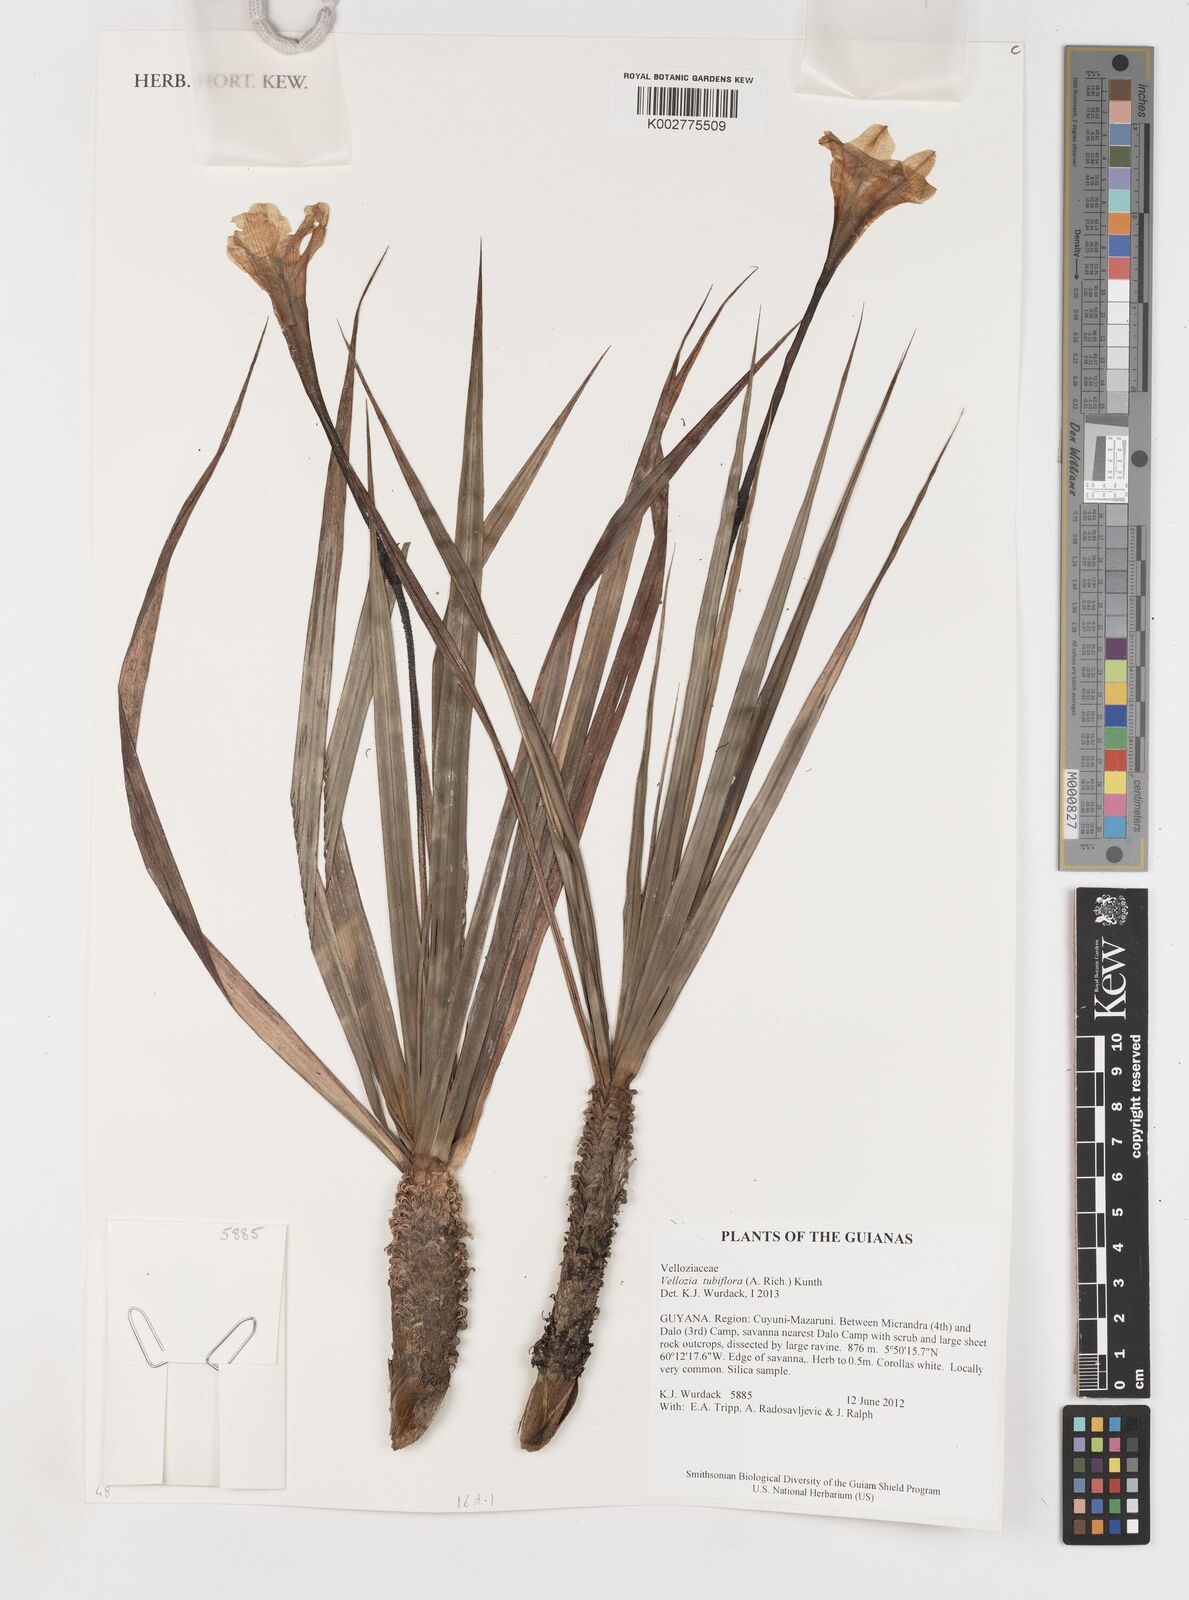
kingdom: Plantae
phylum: Tracheophyta
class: Liliopsida
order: Pandanales
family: Velloziaceae
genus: Vellozia
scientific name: Vellozia tubiflora
